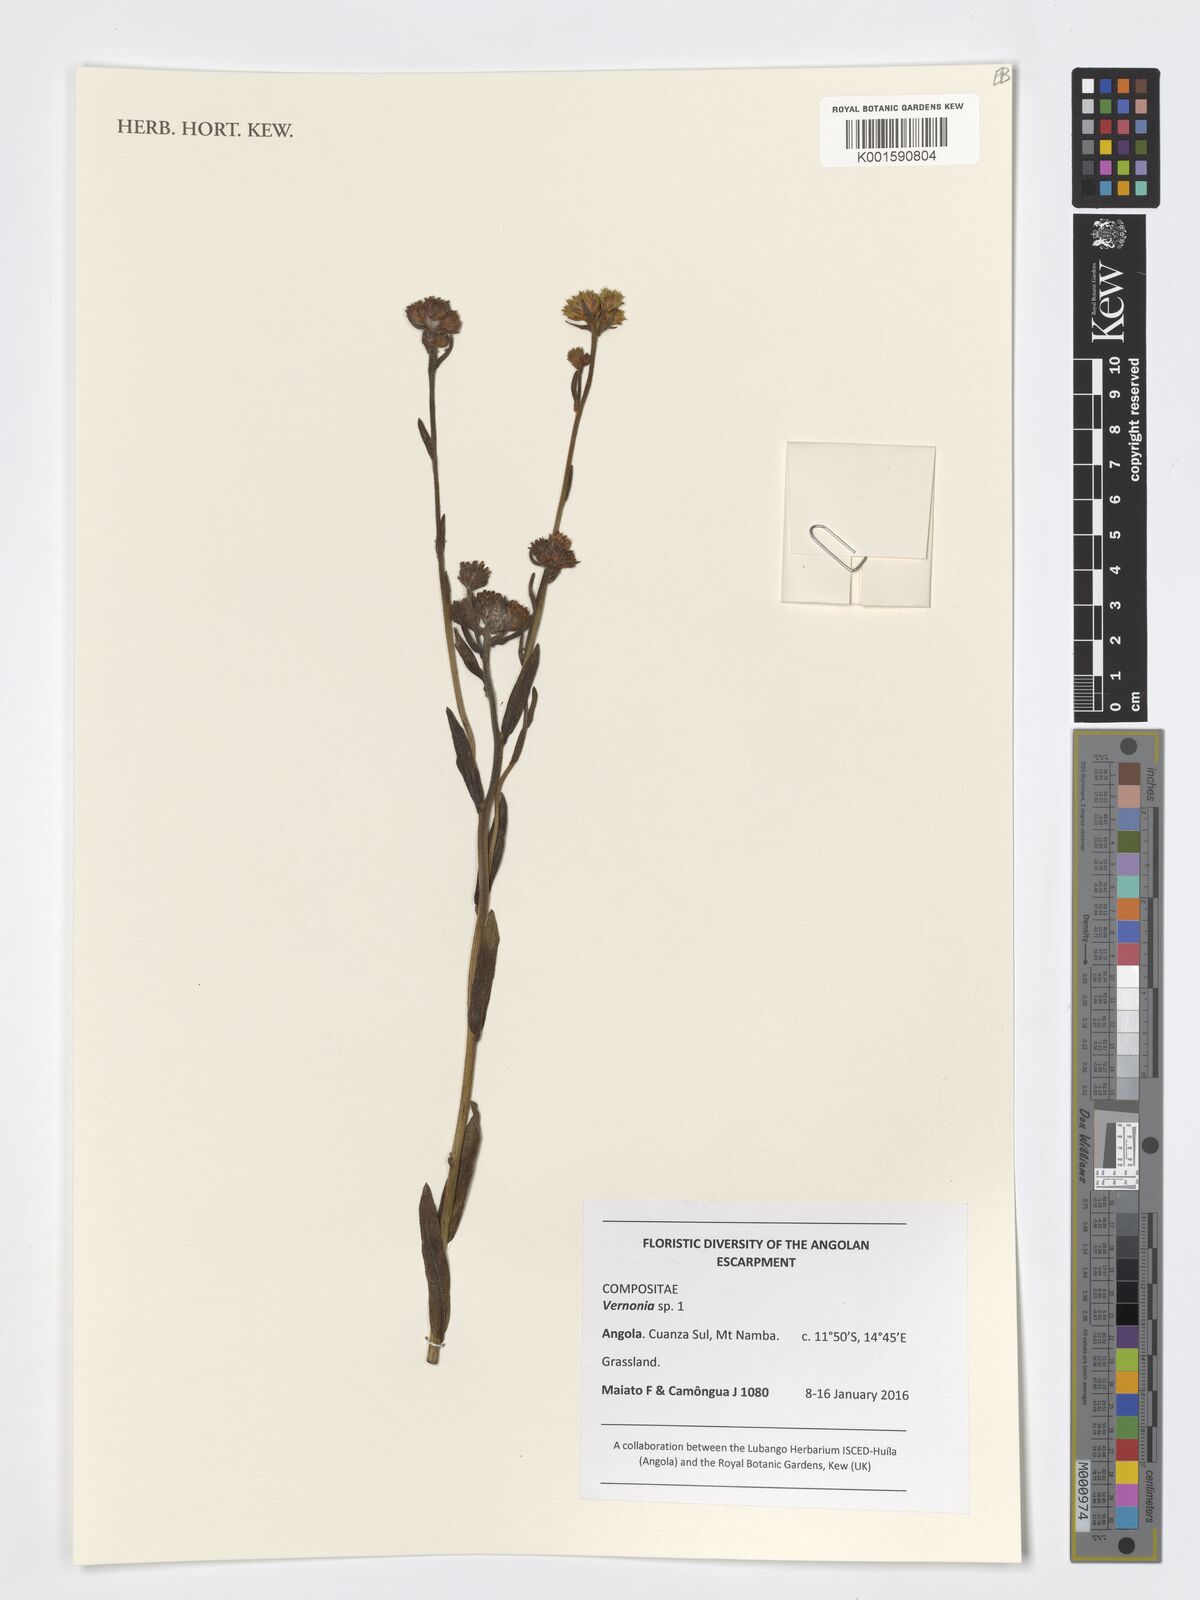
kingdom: Plantae
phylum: Tracheophyta
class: Magnoliopsida
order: Asterales
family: Asteraceae
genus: Vernonia
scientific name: Vernonia
